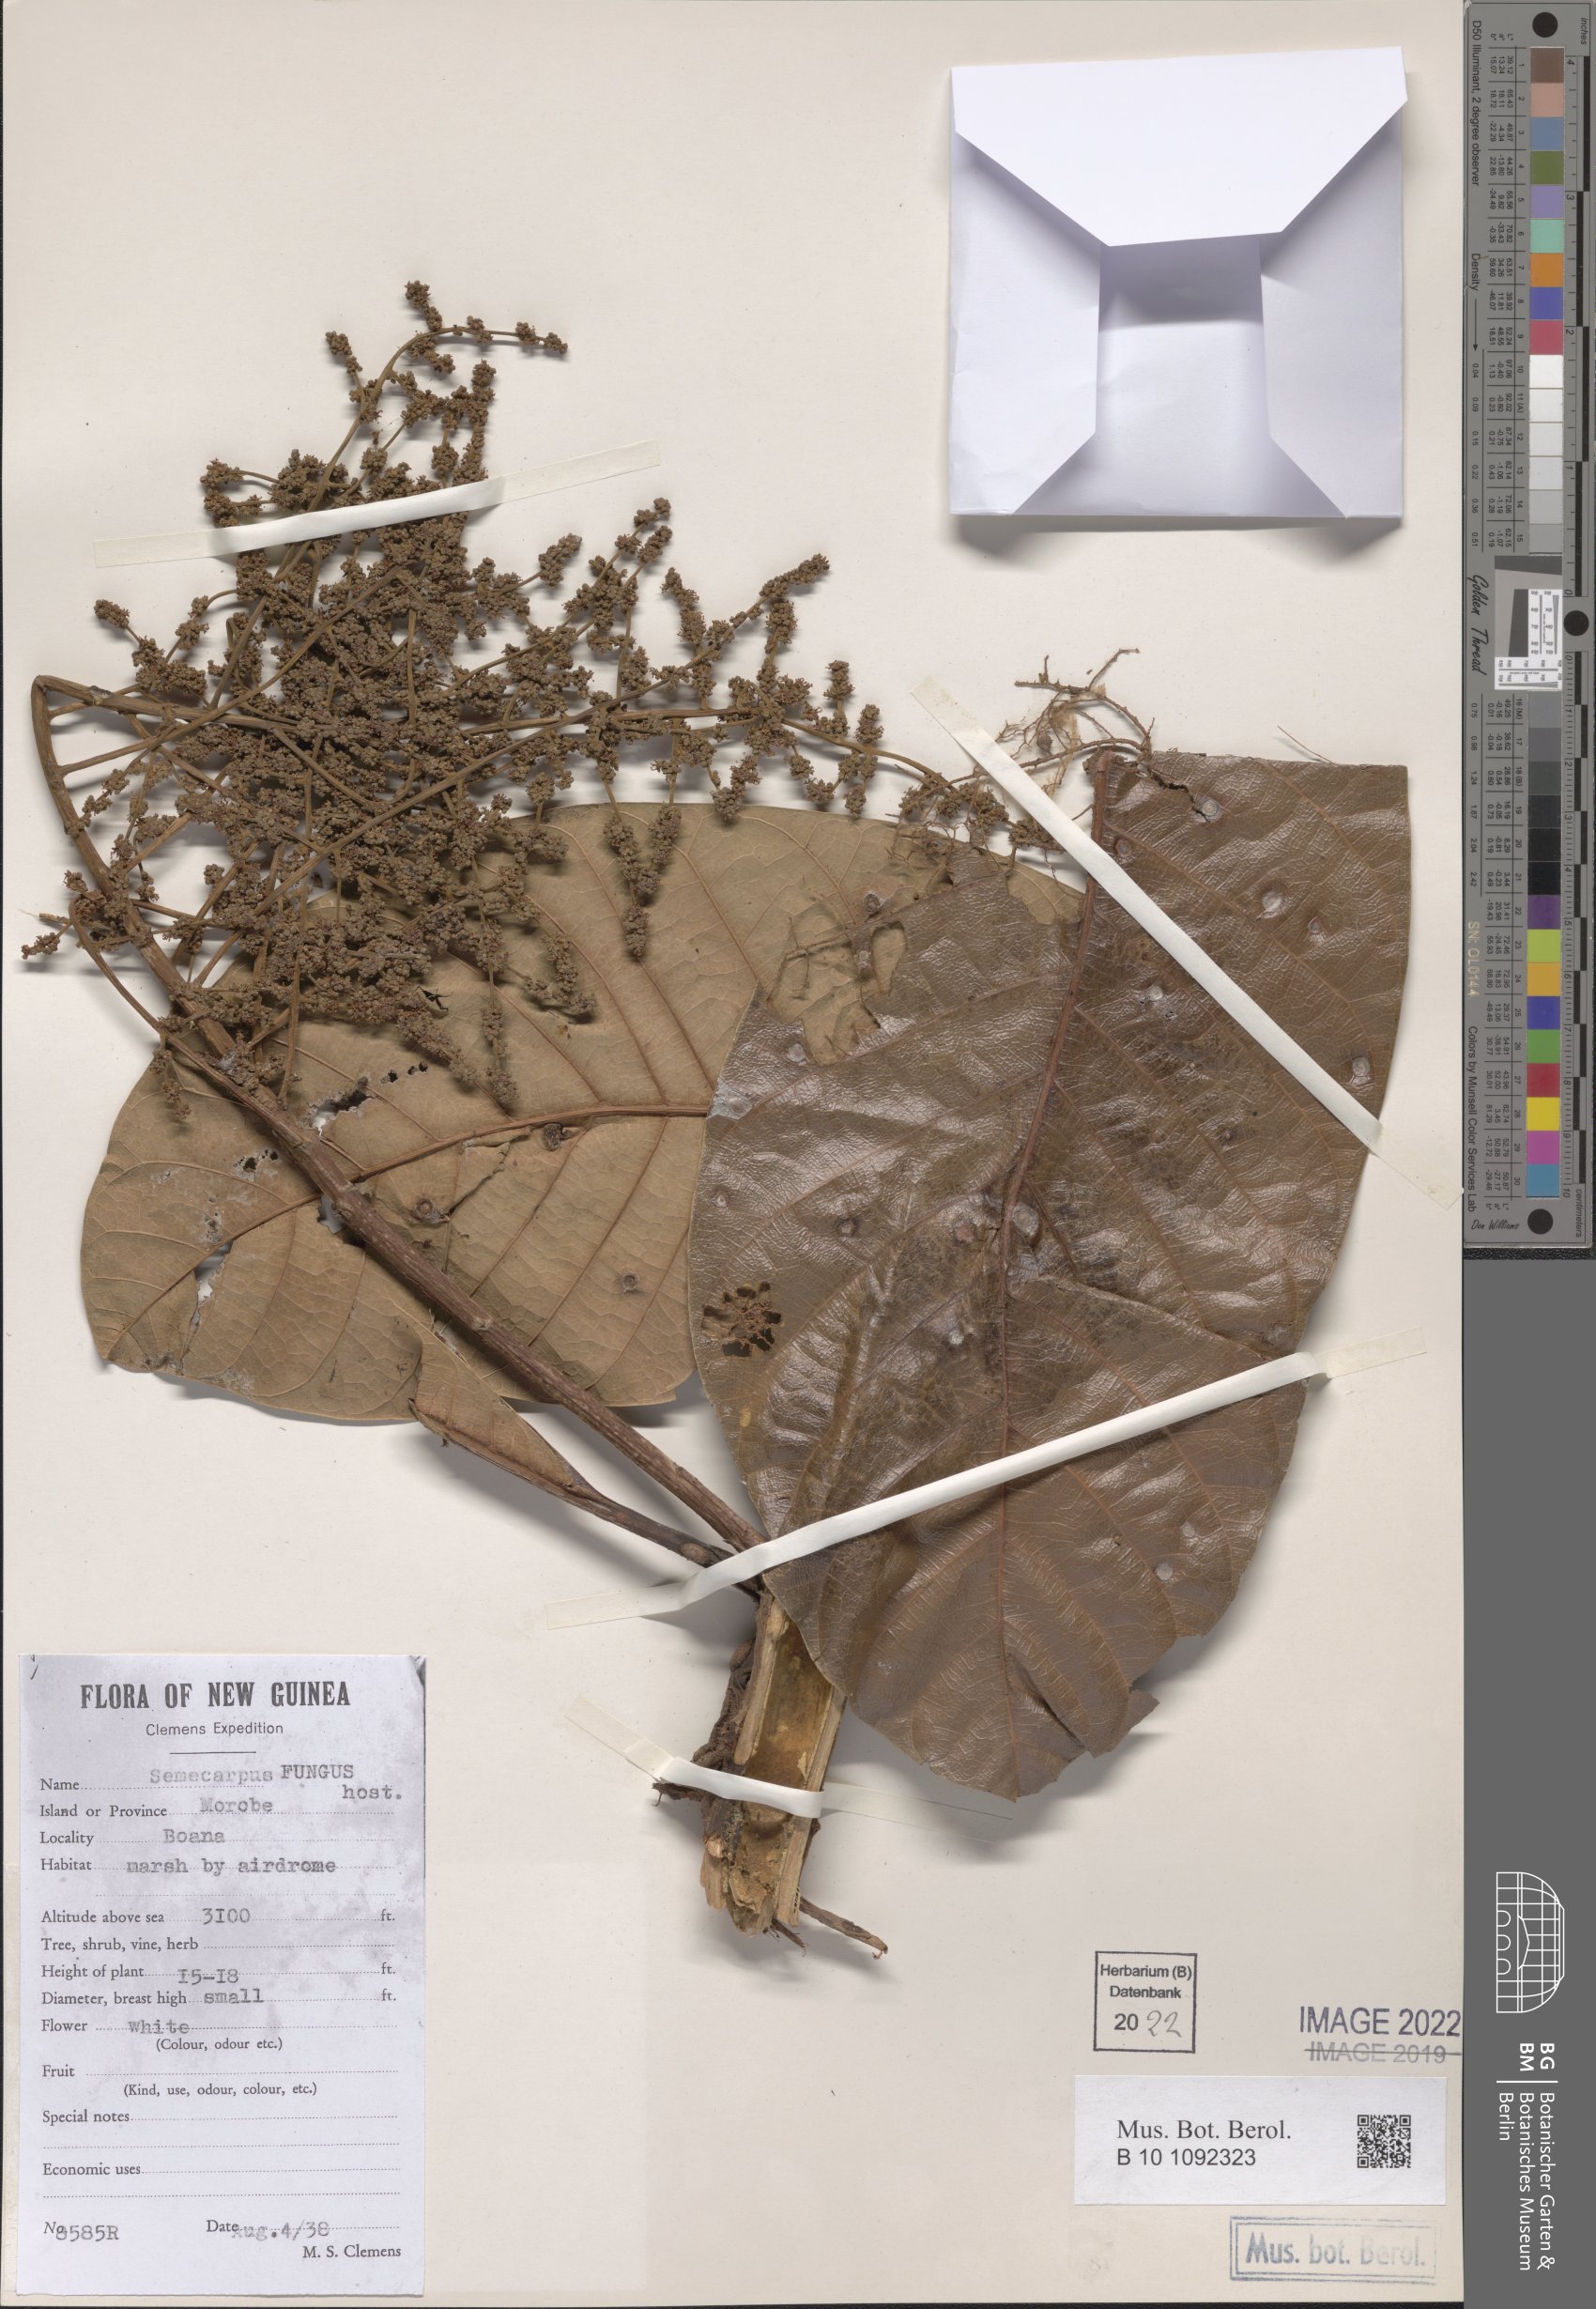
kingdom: Plantae
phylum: Tracheophyta
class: Magnoliopsida
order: Sapindales
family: Anacardiaceae
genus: Semecarpus
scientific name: Semecarpus
